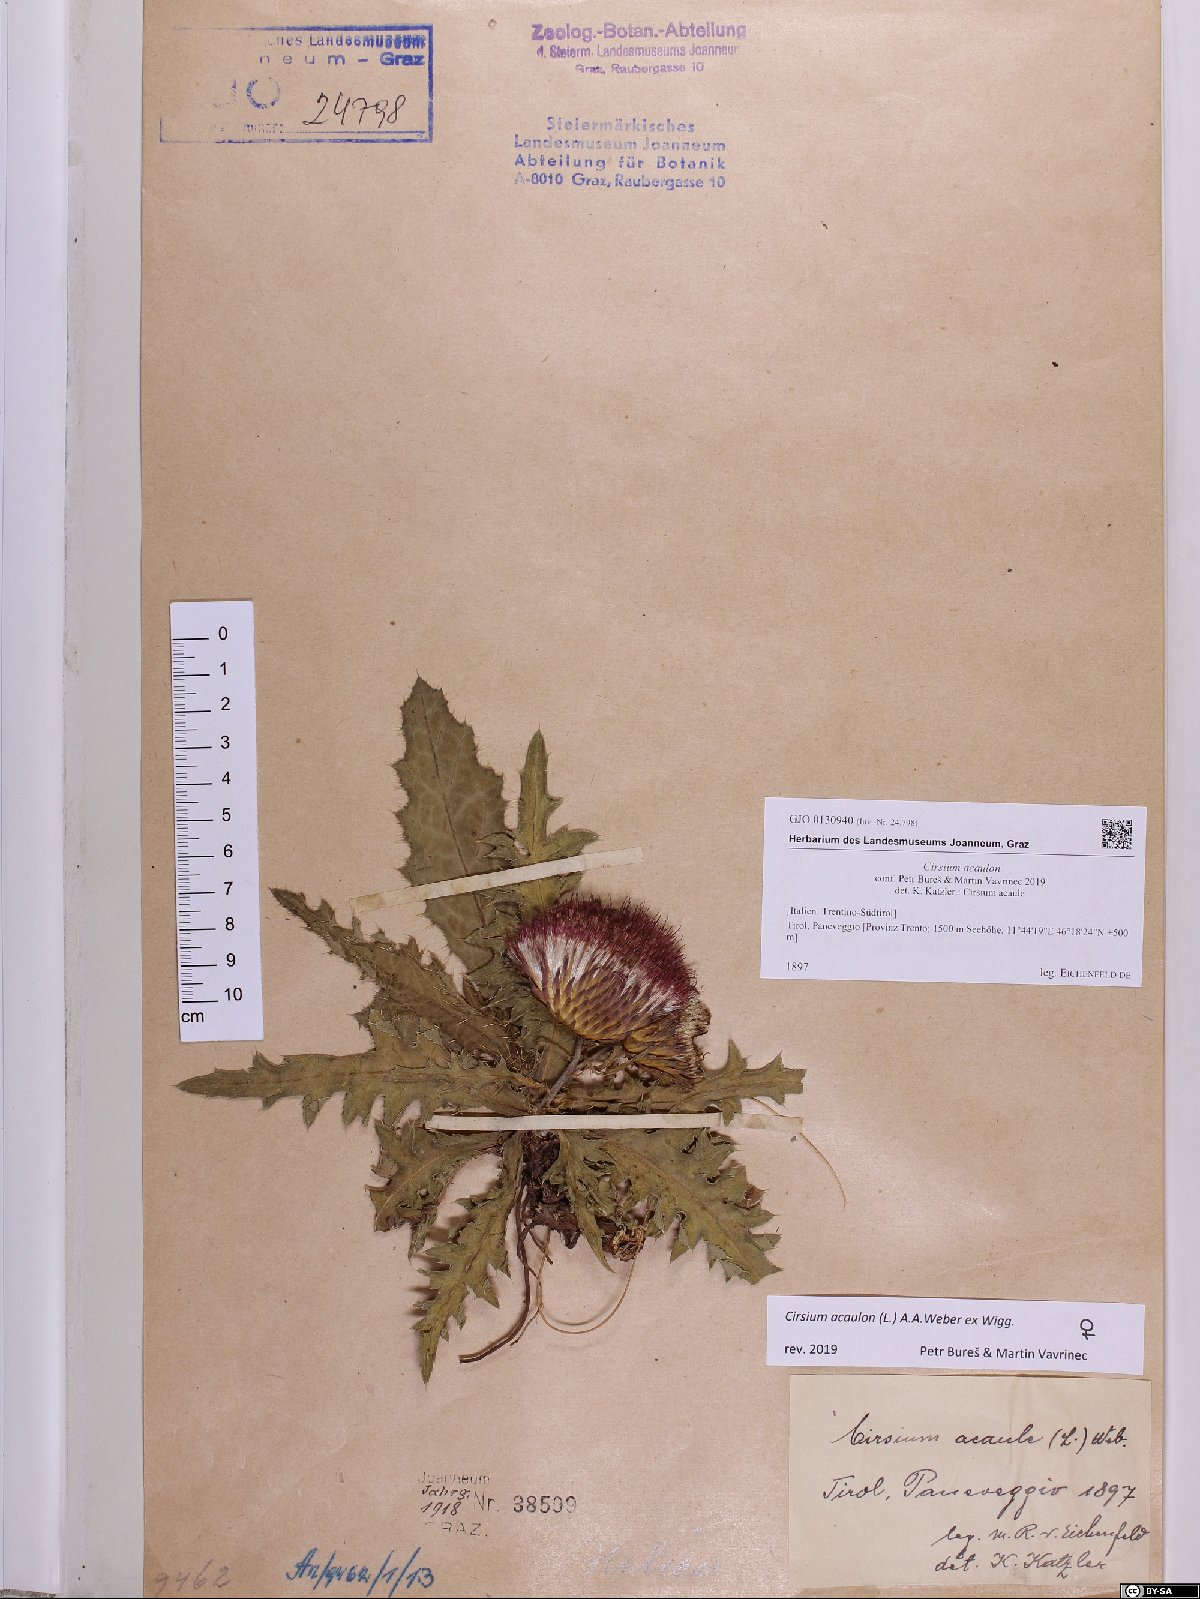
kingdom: Plantae
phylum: Tracheophyta
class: Magnoliopsida
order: Asterales
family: Asteraceae
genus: Cirsium
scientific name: Cirsium acaulon
